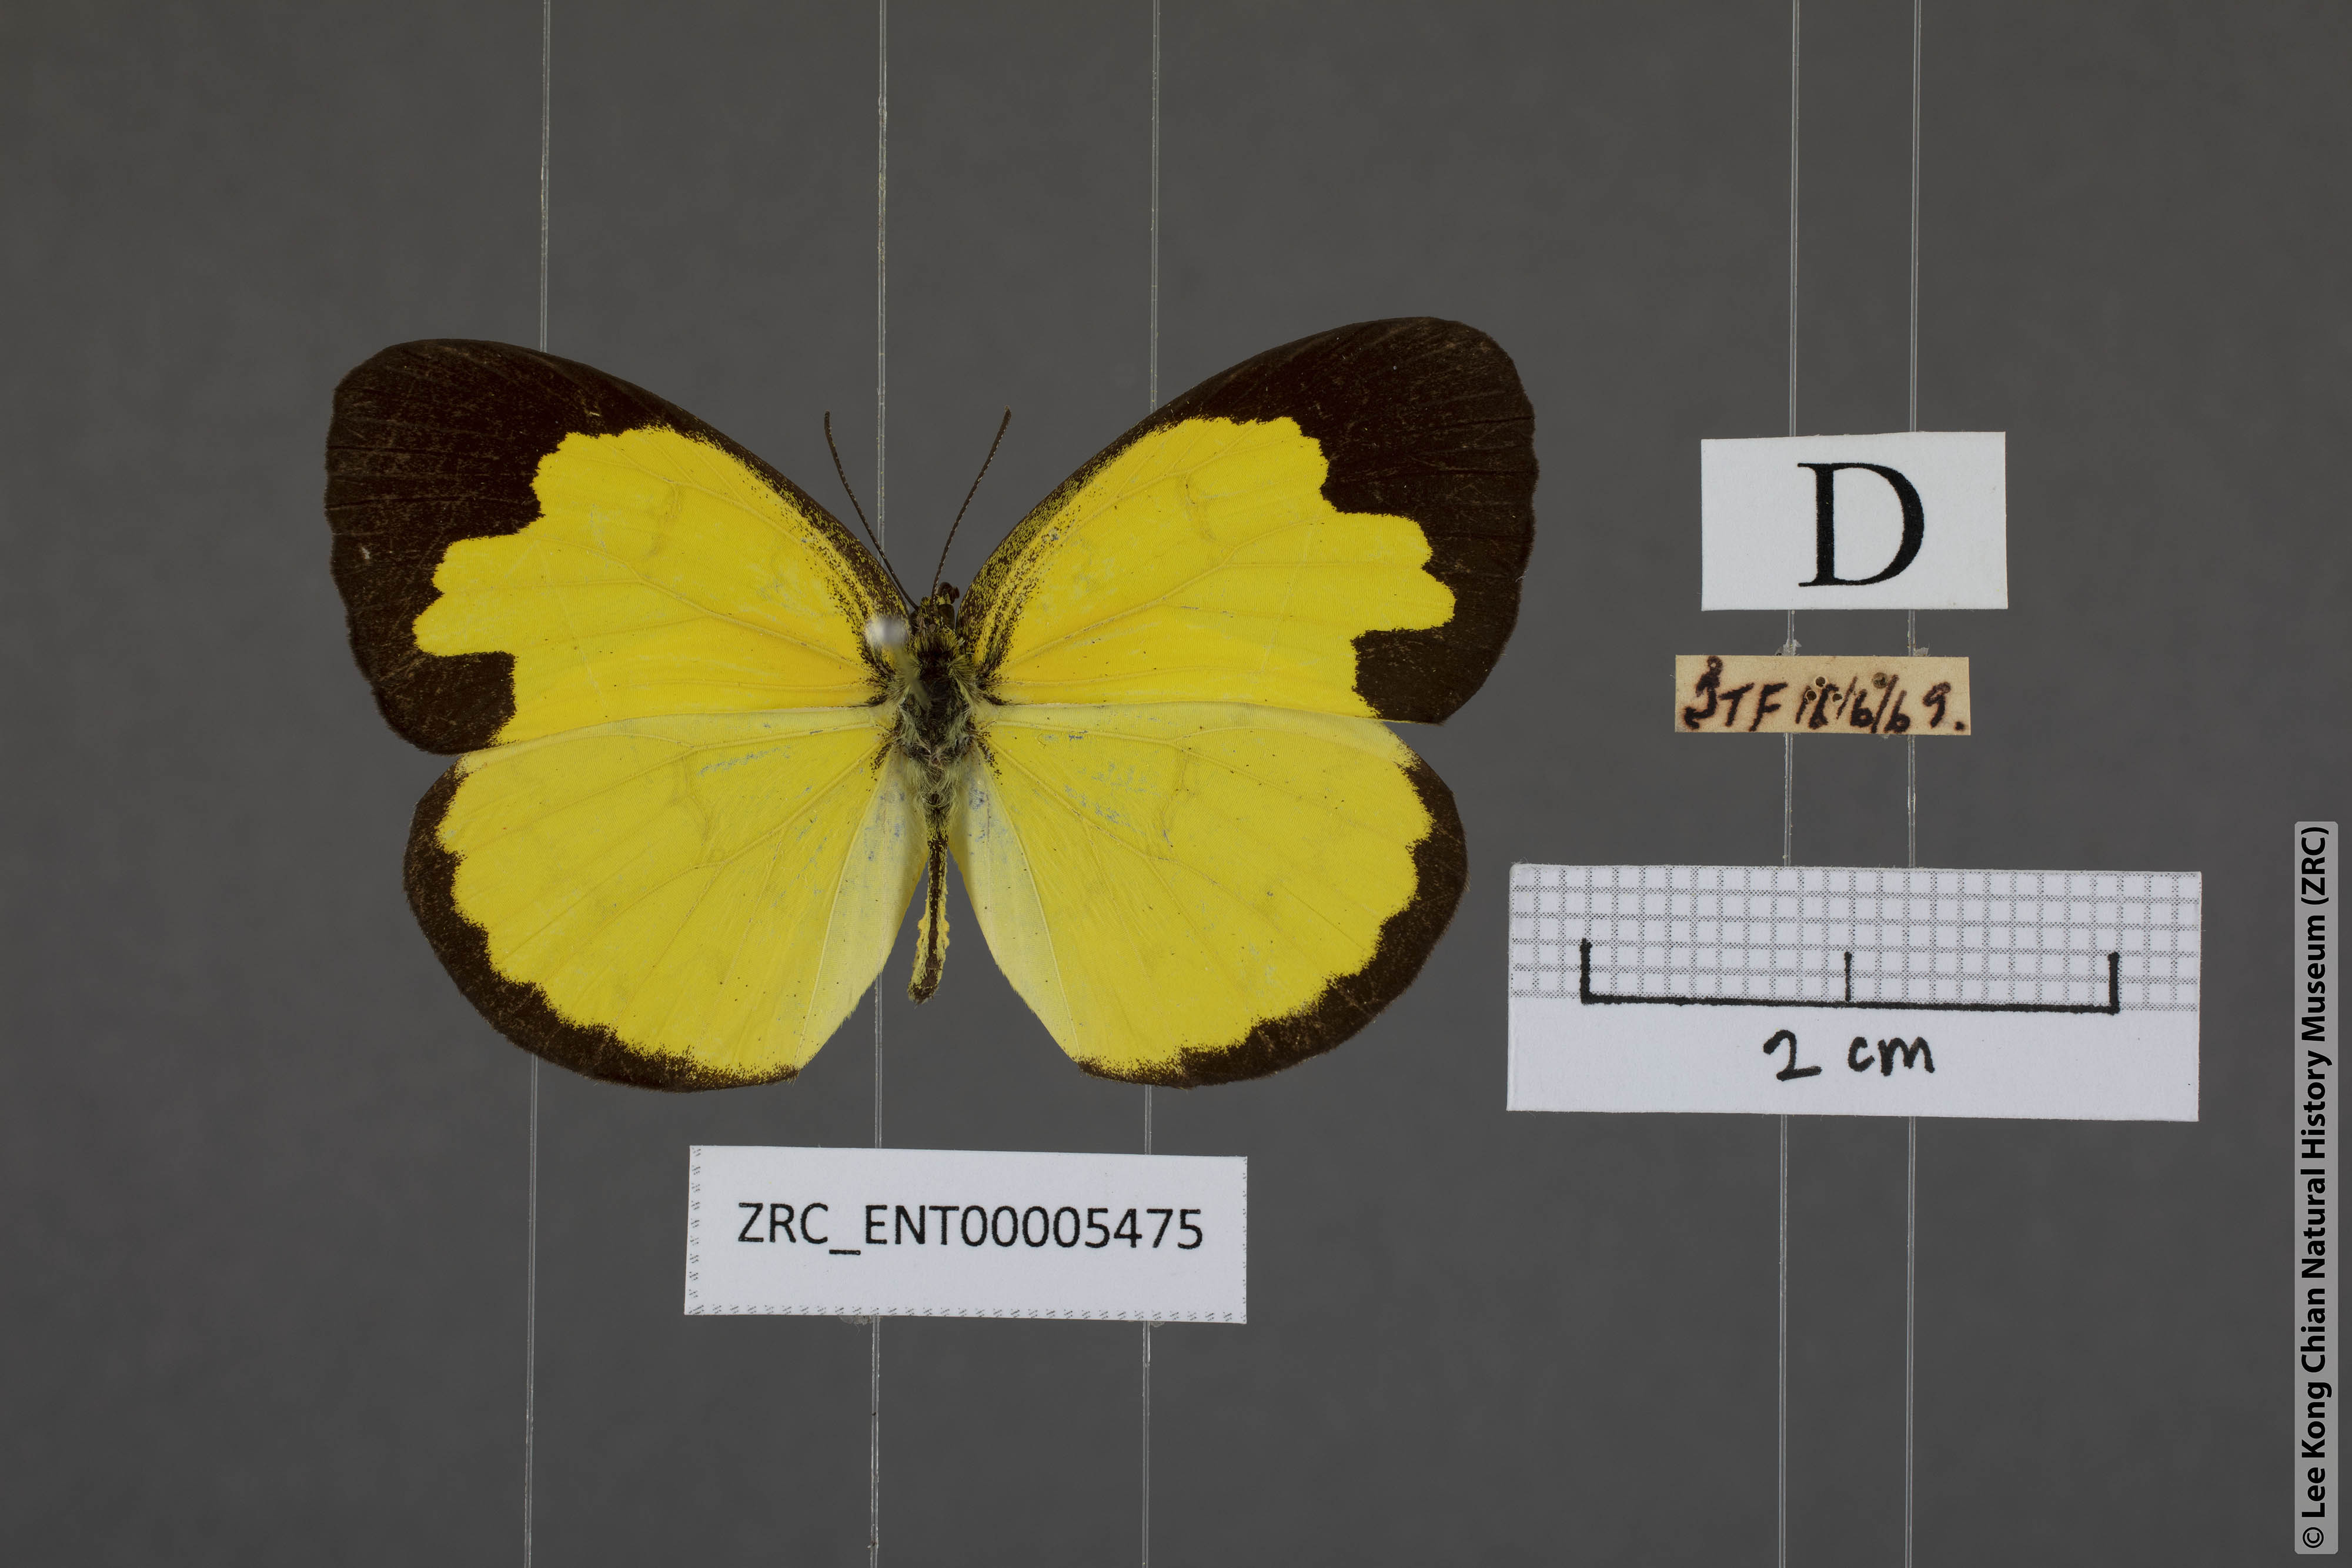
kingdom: Animalia
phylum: Arthropoda
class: Insecta
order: Lepidoptera
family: Pieridae
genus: Eurema
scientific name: Eurema simulatrix
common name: Hill grass yellow
